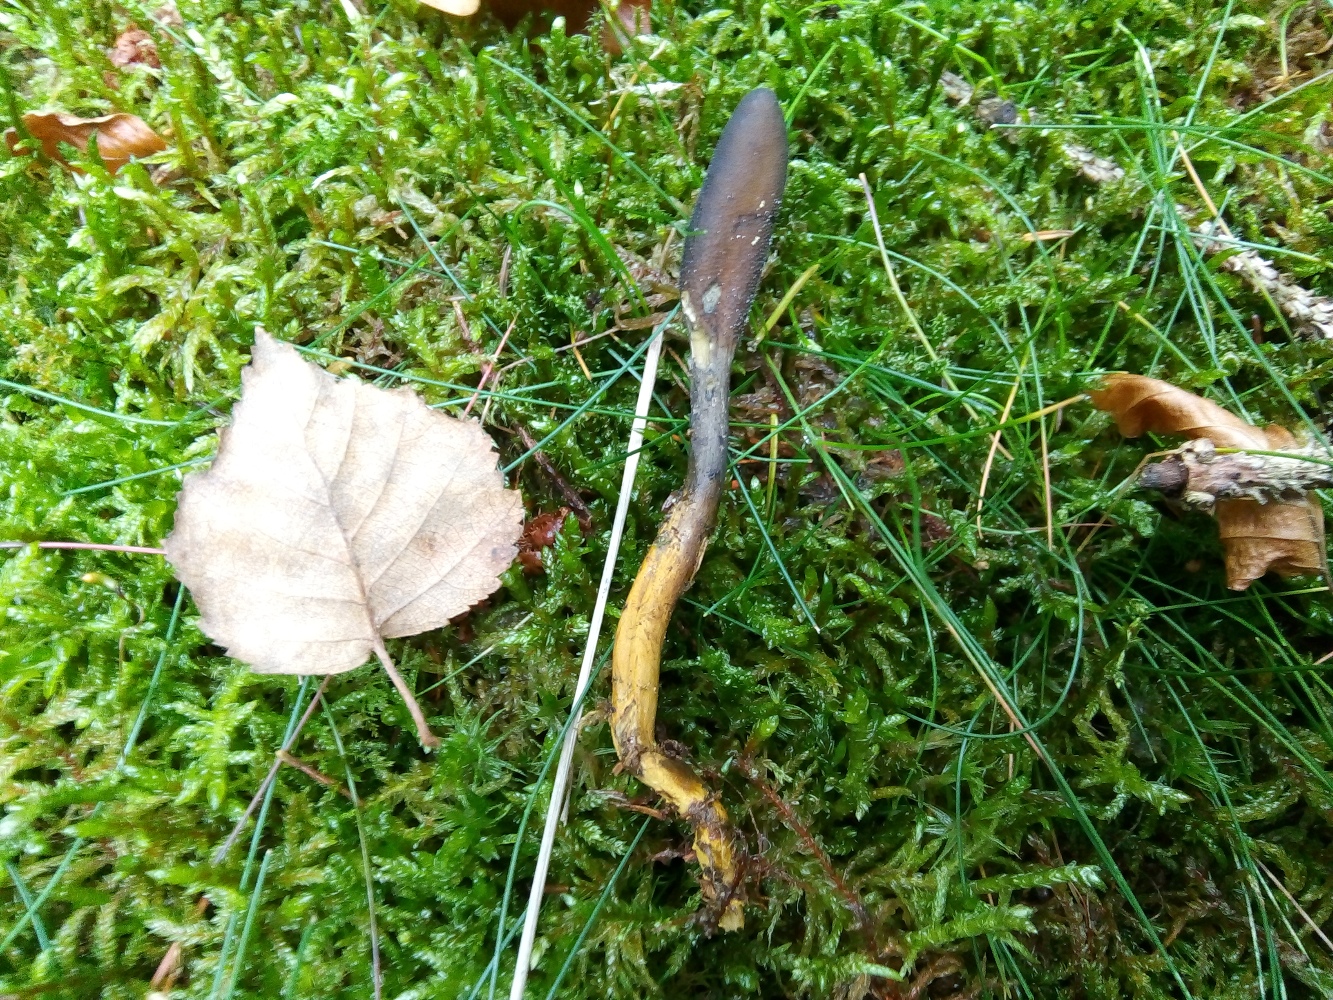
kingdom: Fungi
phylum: Ascomycota
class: Sordariomycetes
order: Hypocreales
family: Ophiocordycipitaceae
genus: Tolypocladium
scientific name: Tolypocladium ophioglossoides
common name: slank snyltekølle
